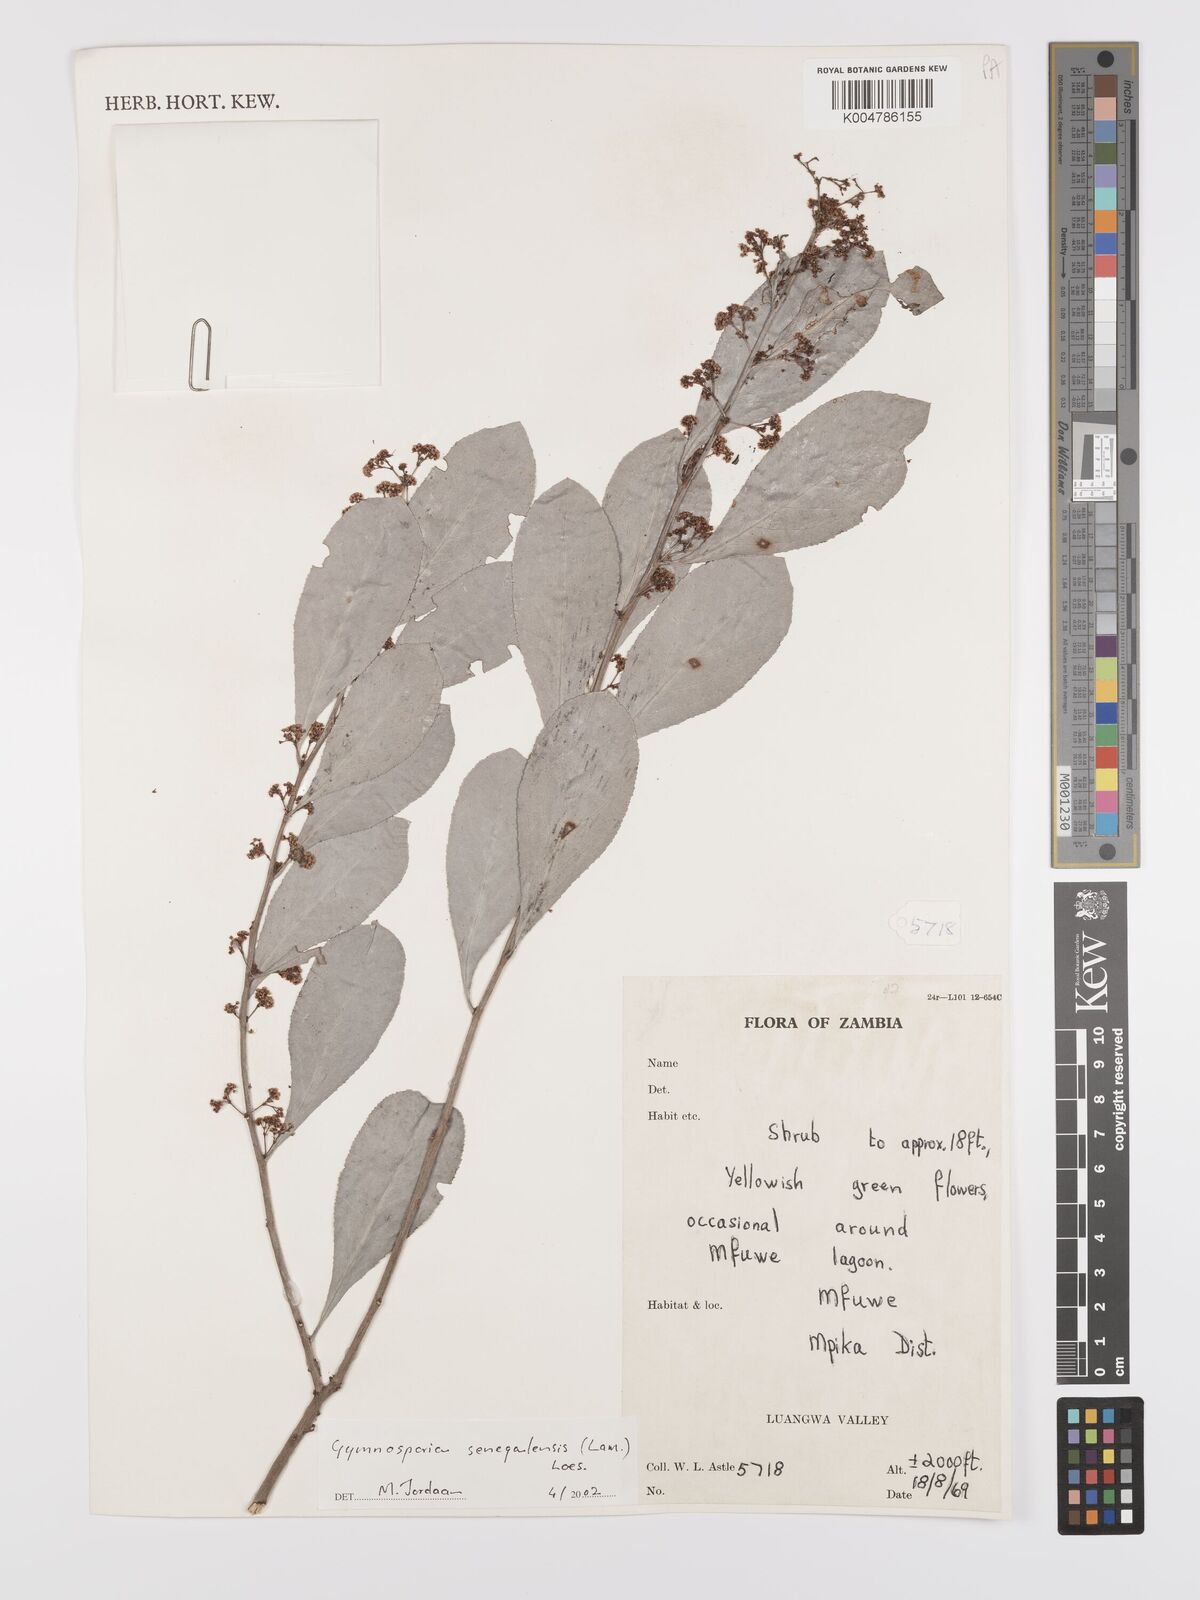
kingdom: Plantae
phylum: Tracheophyta
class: Magnoliopsida
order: Celastrales
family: Celastraceae
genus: Gymnosporia
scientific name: Gymnosporia senegalensis
